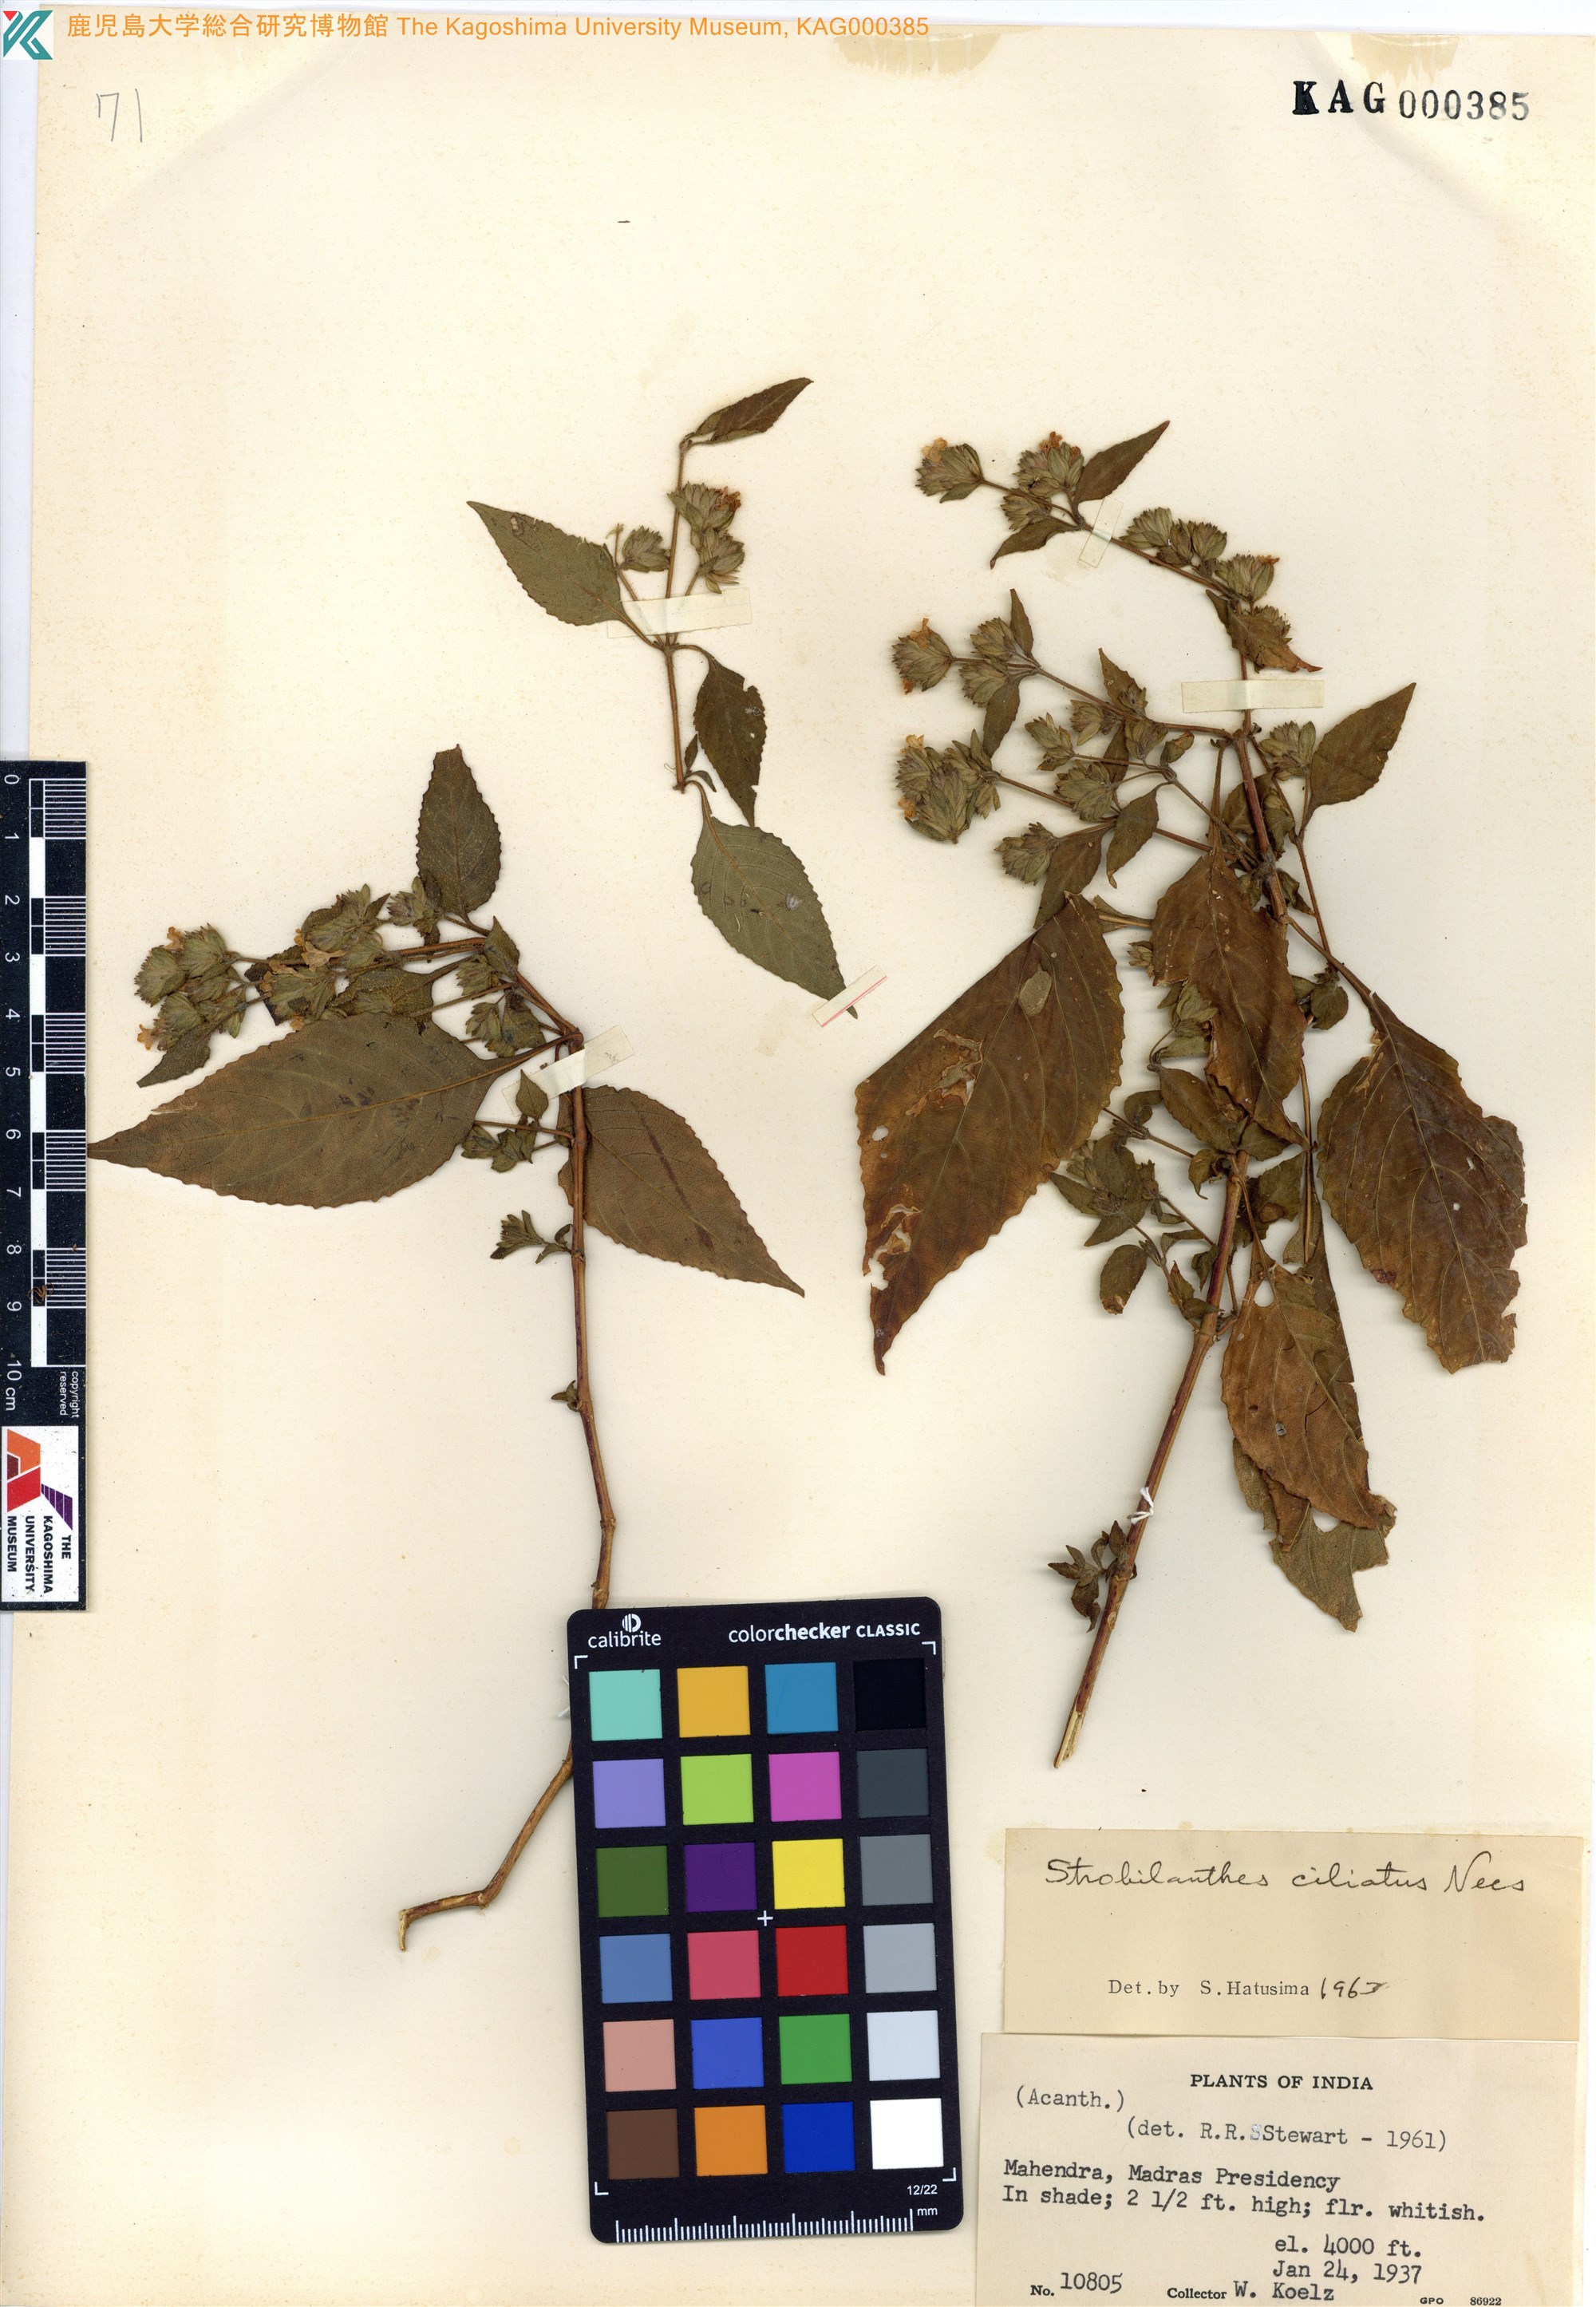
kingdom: Plantae
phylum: Tracheophyta
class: Magnoliopsida
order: Lamiales
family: Acanthaceae
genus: Strobilanthes
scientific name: Strobilanthes ciliata
